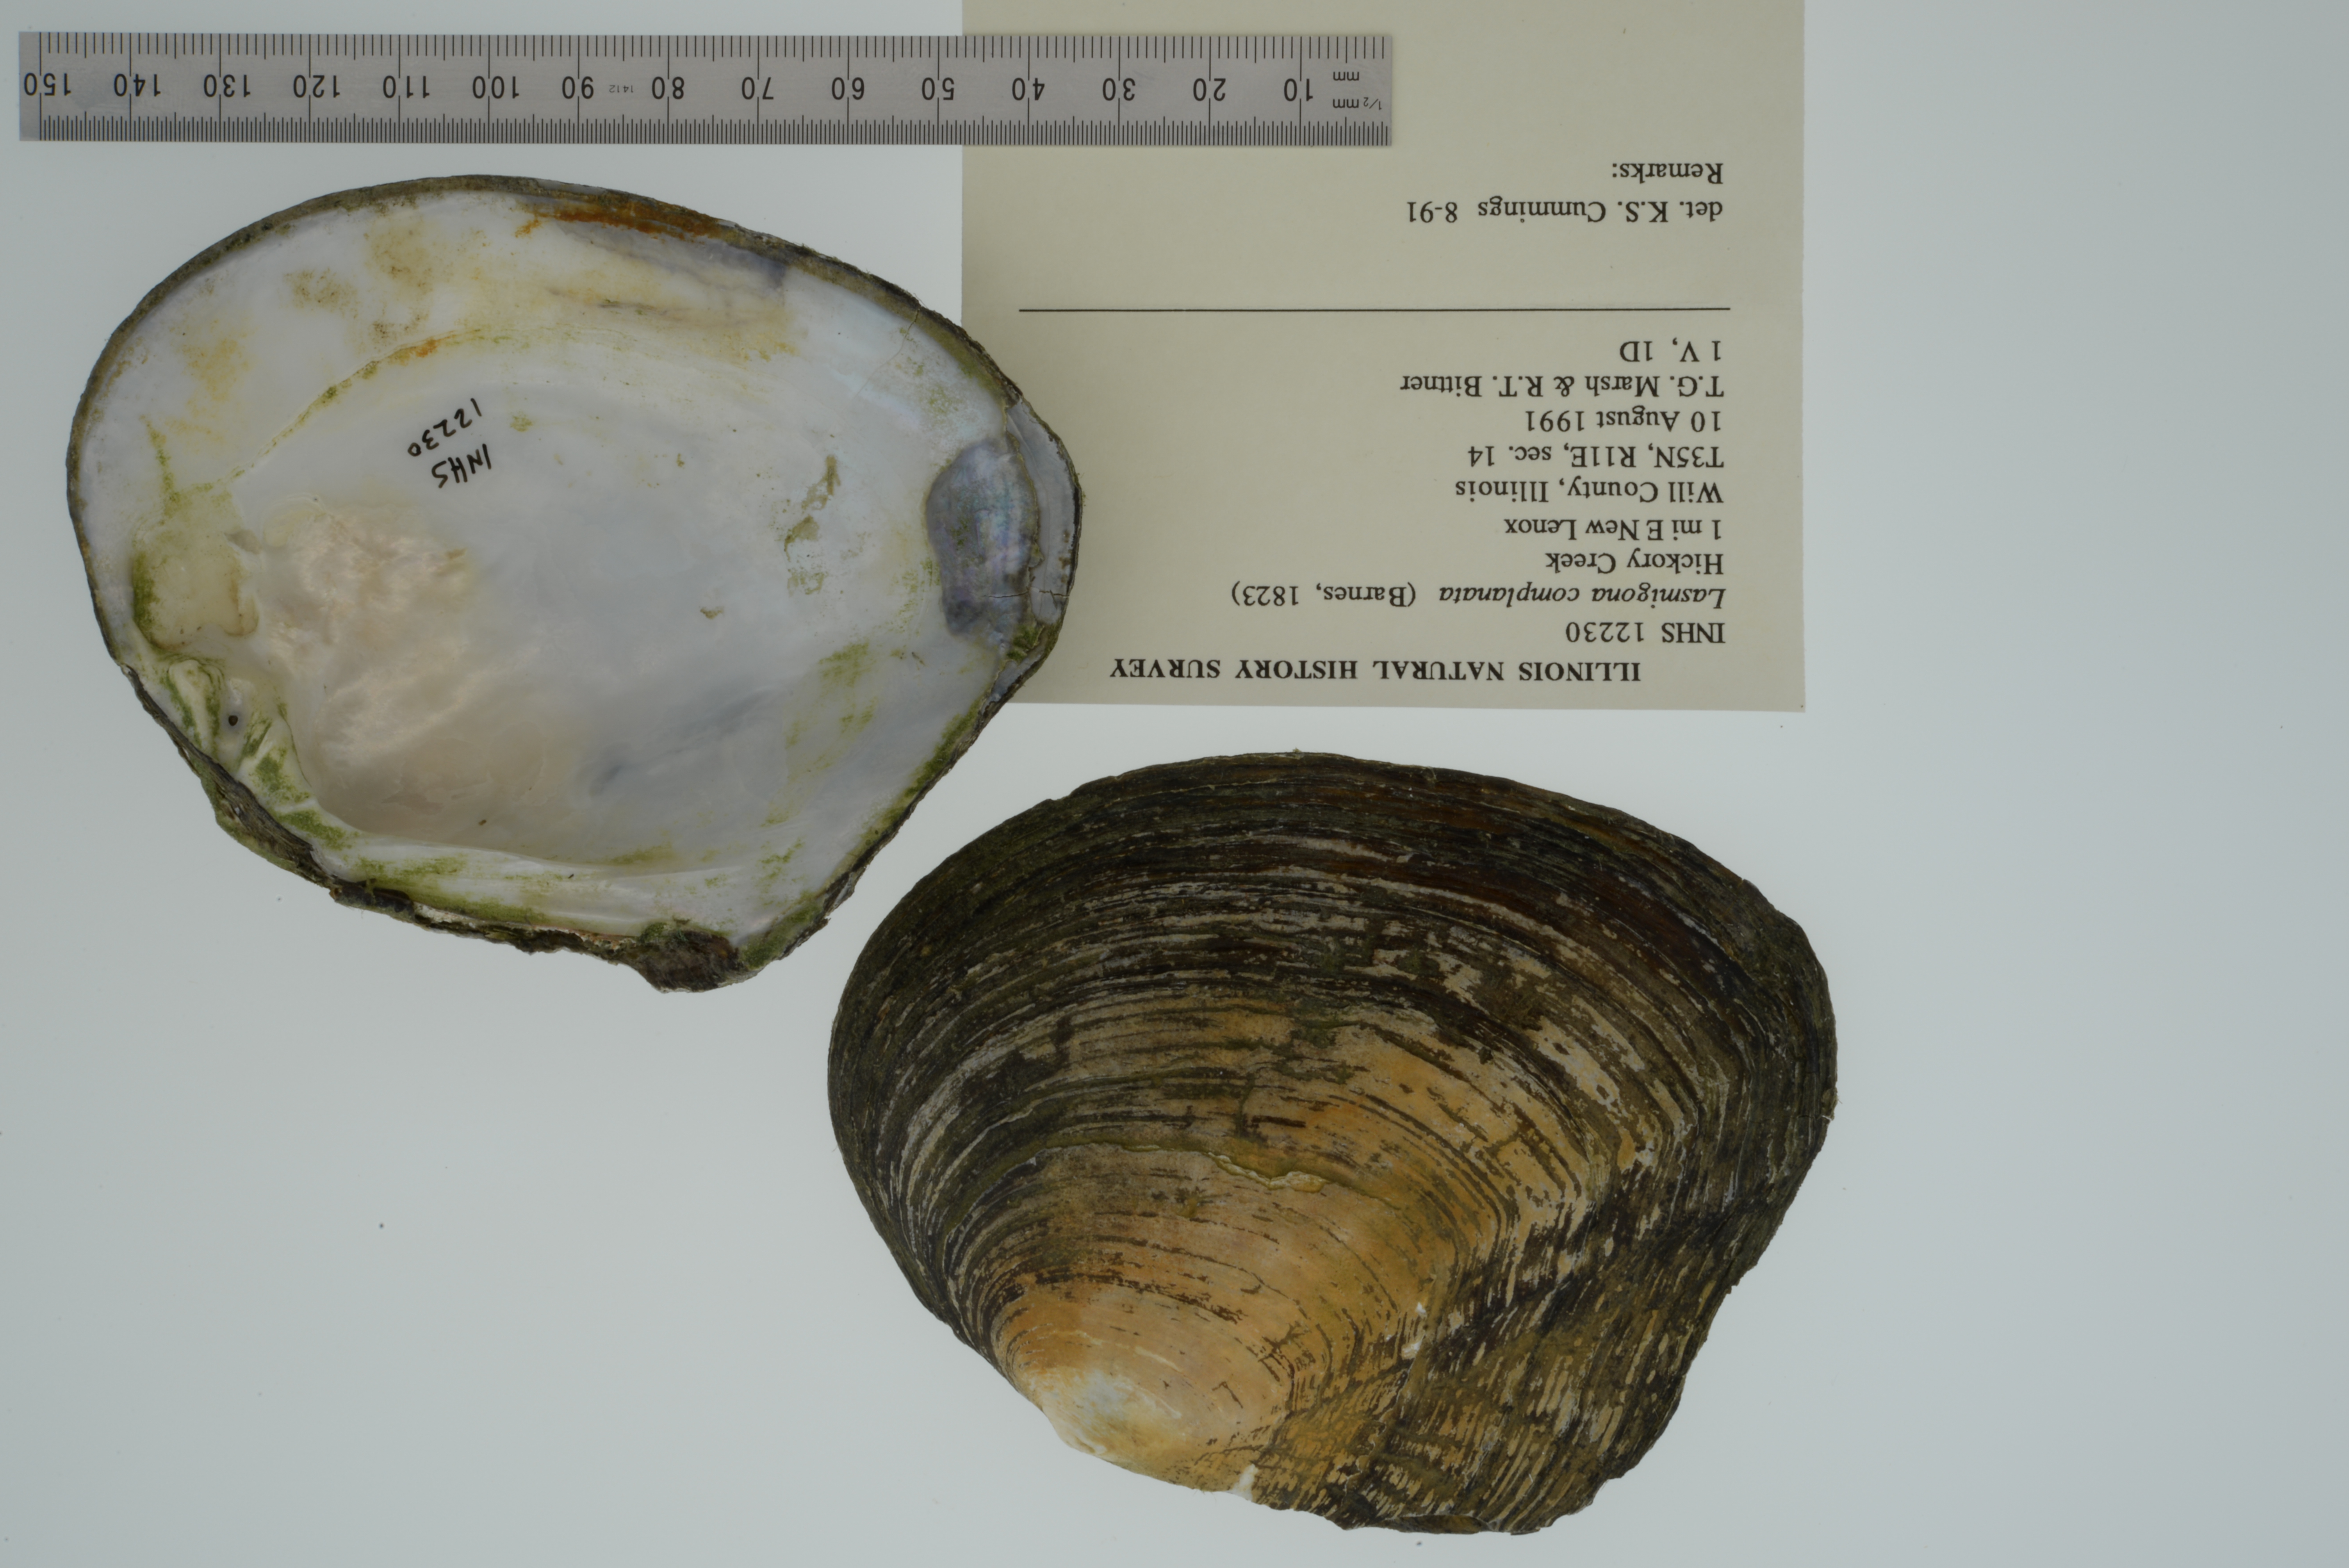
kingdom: Animalia
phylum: Mollusca
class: Bivalvia
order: Unionida
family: Unionidae
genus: Lasmigona
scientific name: Lasmigona complanata
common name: White heelsplitter
